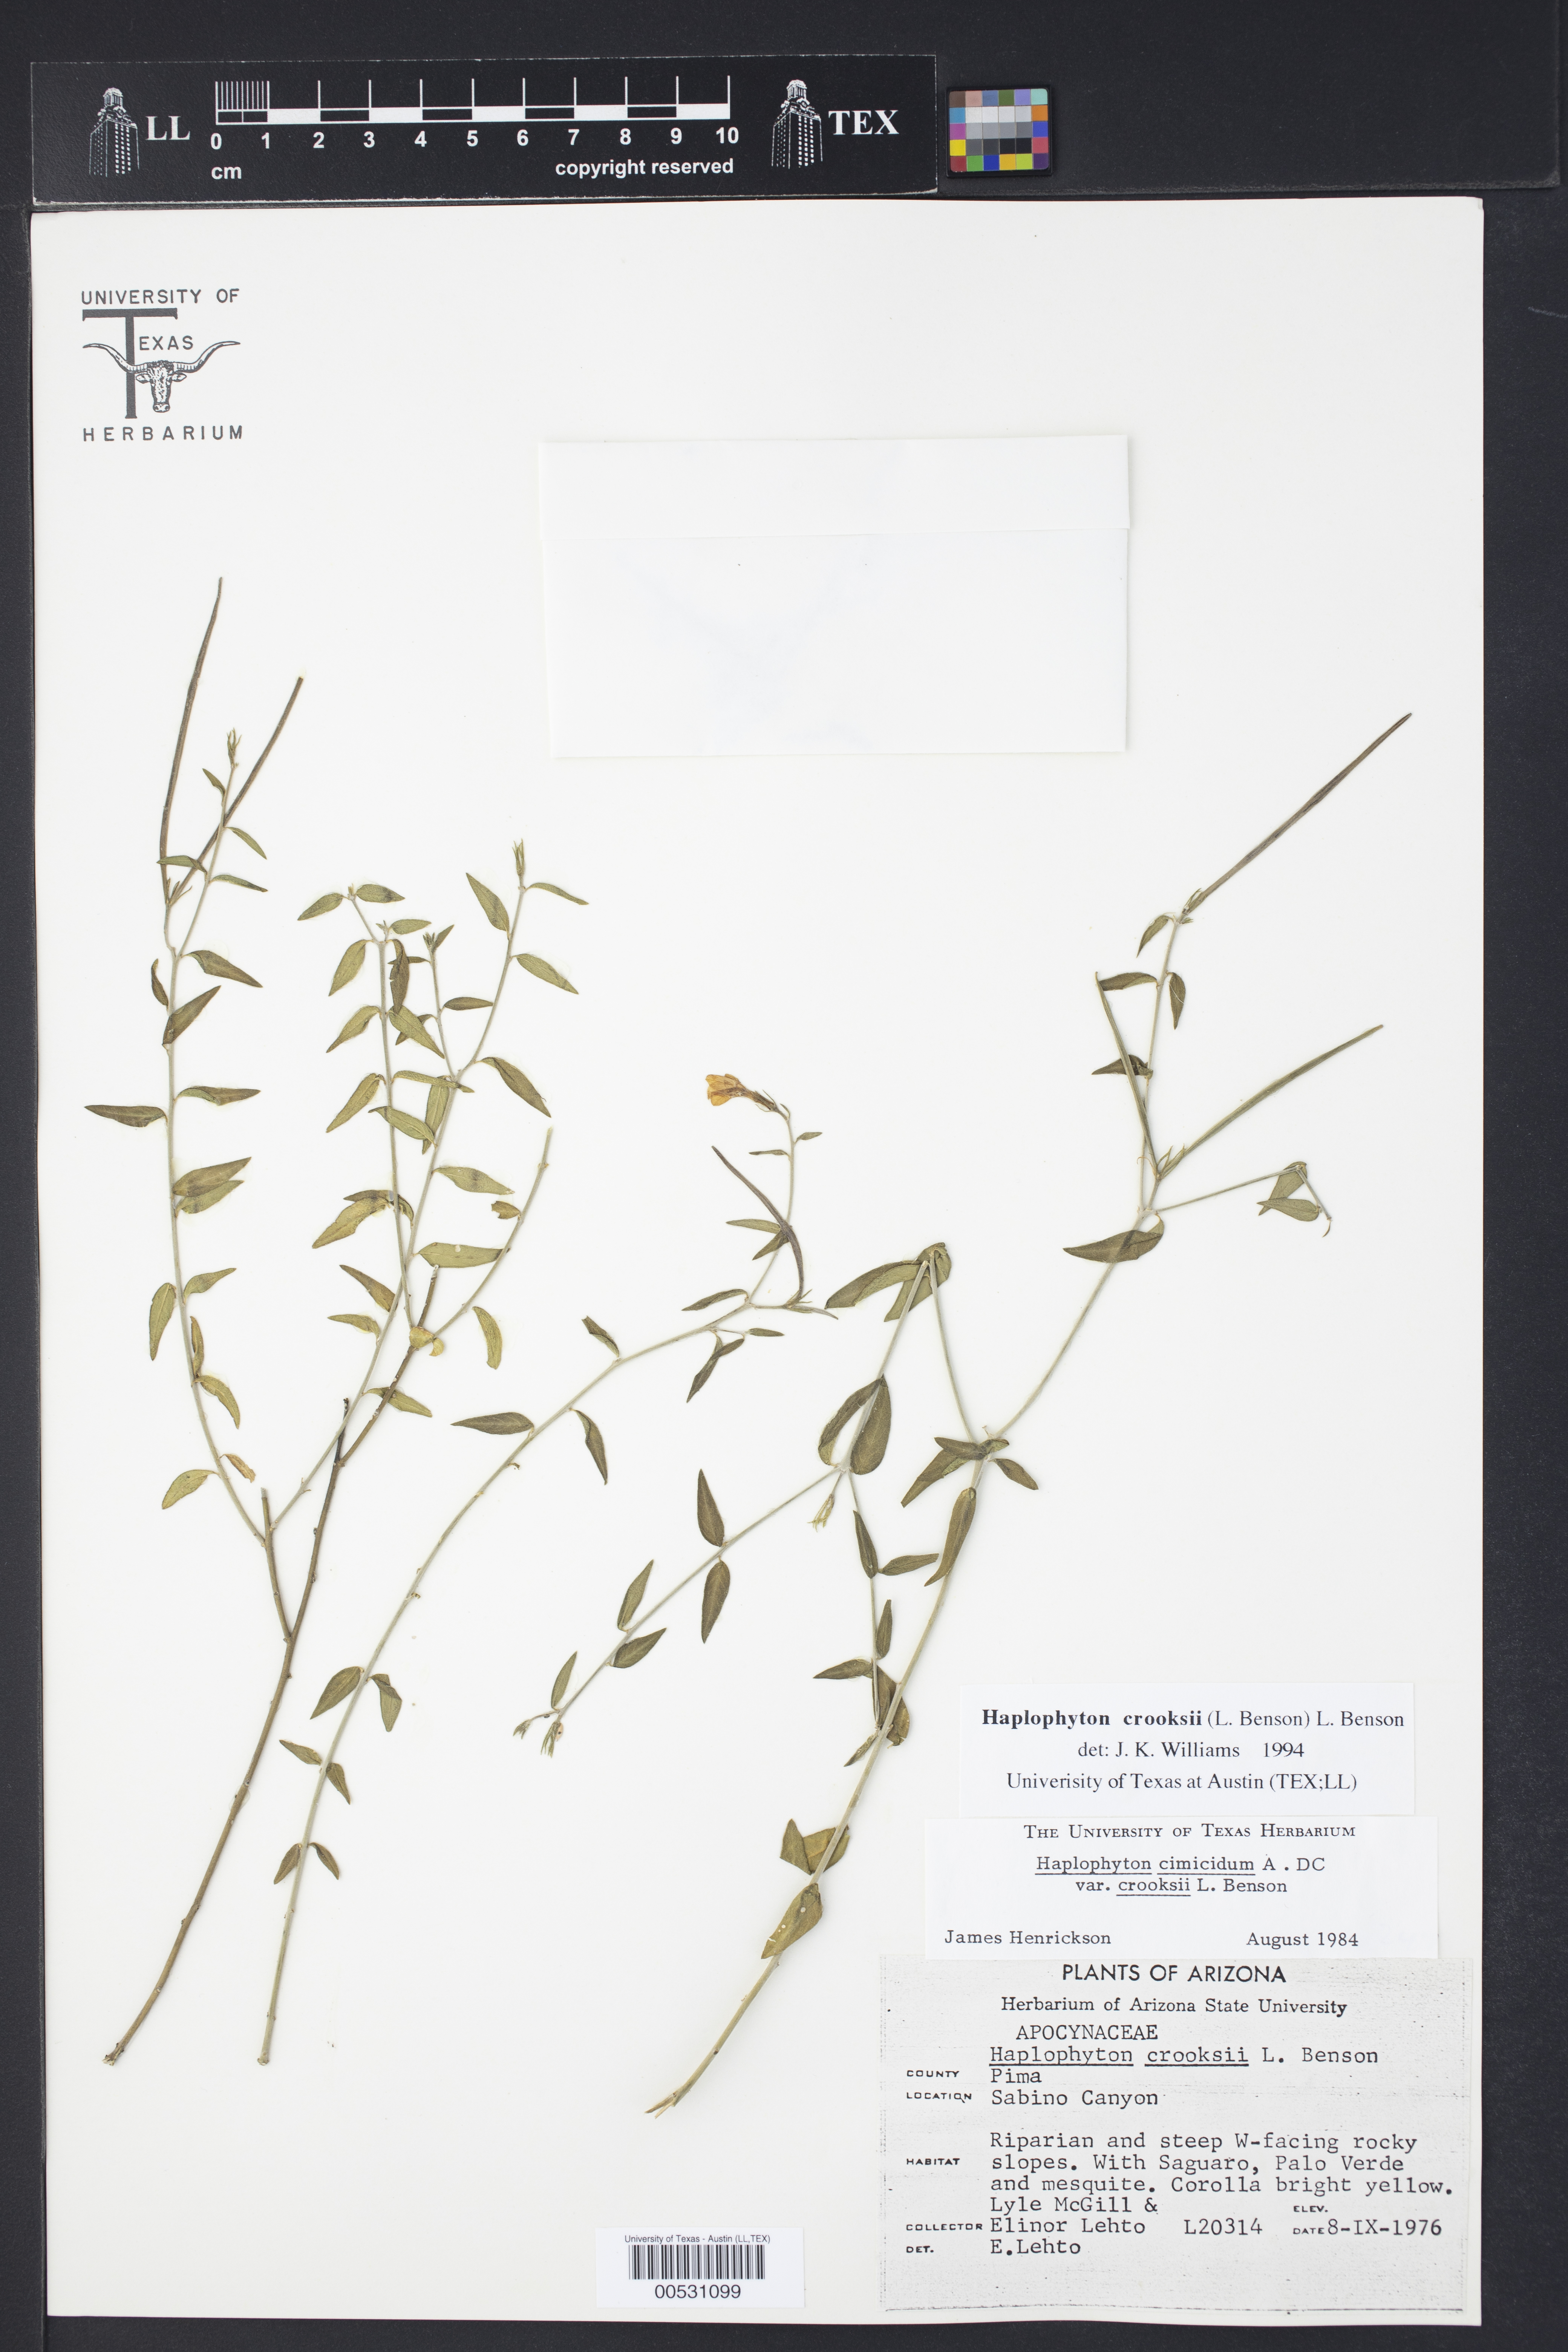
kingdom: Plantae
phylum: Tracheophyta
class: Magnoliopsida
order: Gentianales
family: Apocynaceae
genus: Haplophyton
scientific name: Haplophyton crooksii
